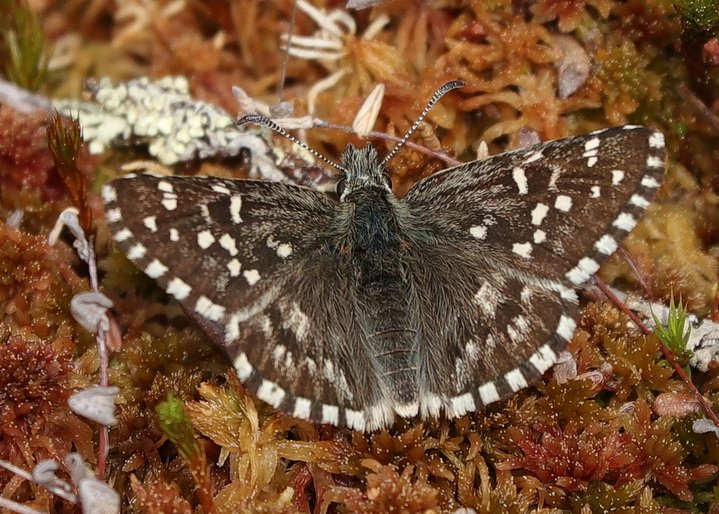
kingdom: Animalia
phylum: Arthropoda
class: Insecta
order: Lepidoptera
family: Hesperiidae
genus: Pyrgus
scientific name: Pyrgus centaureae
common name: Grizzled Skipper
